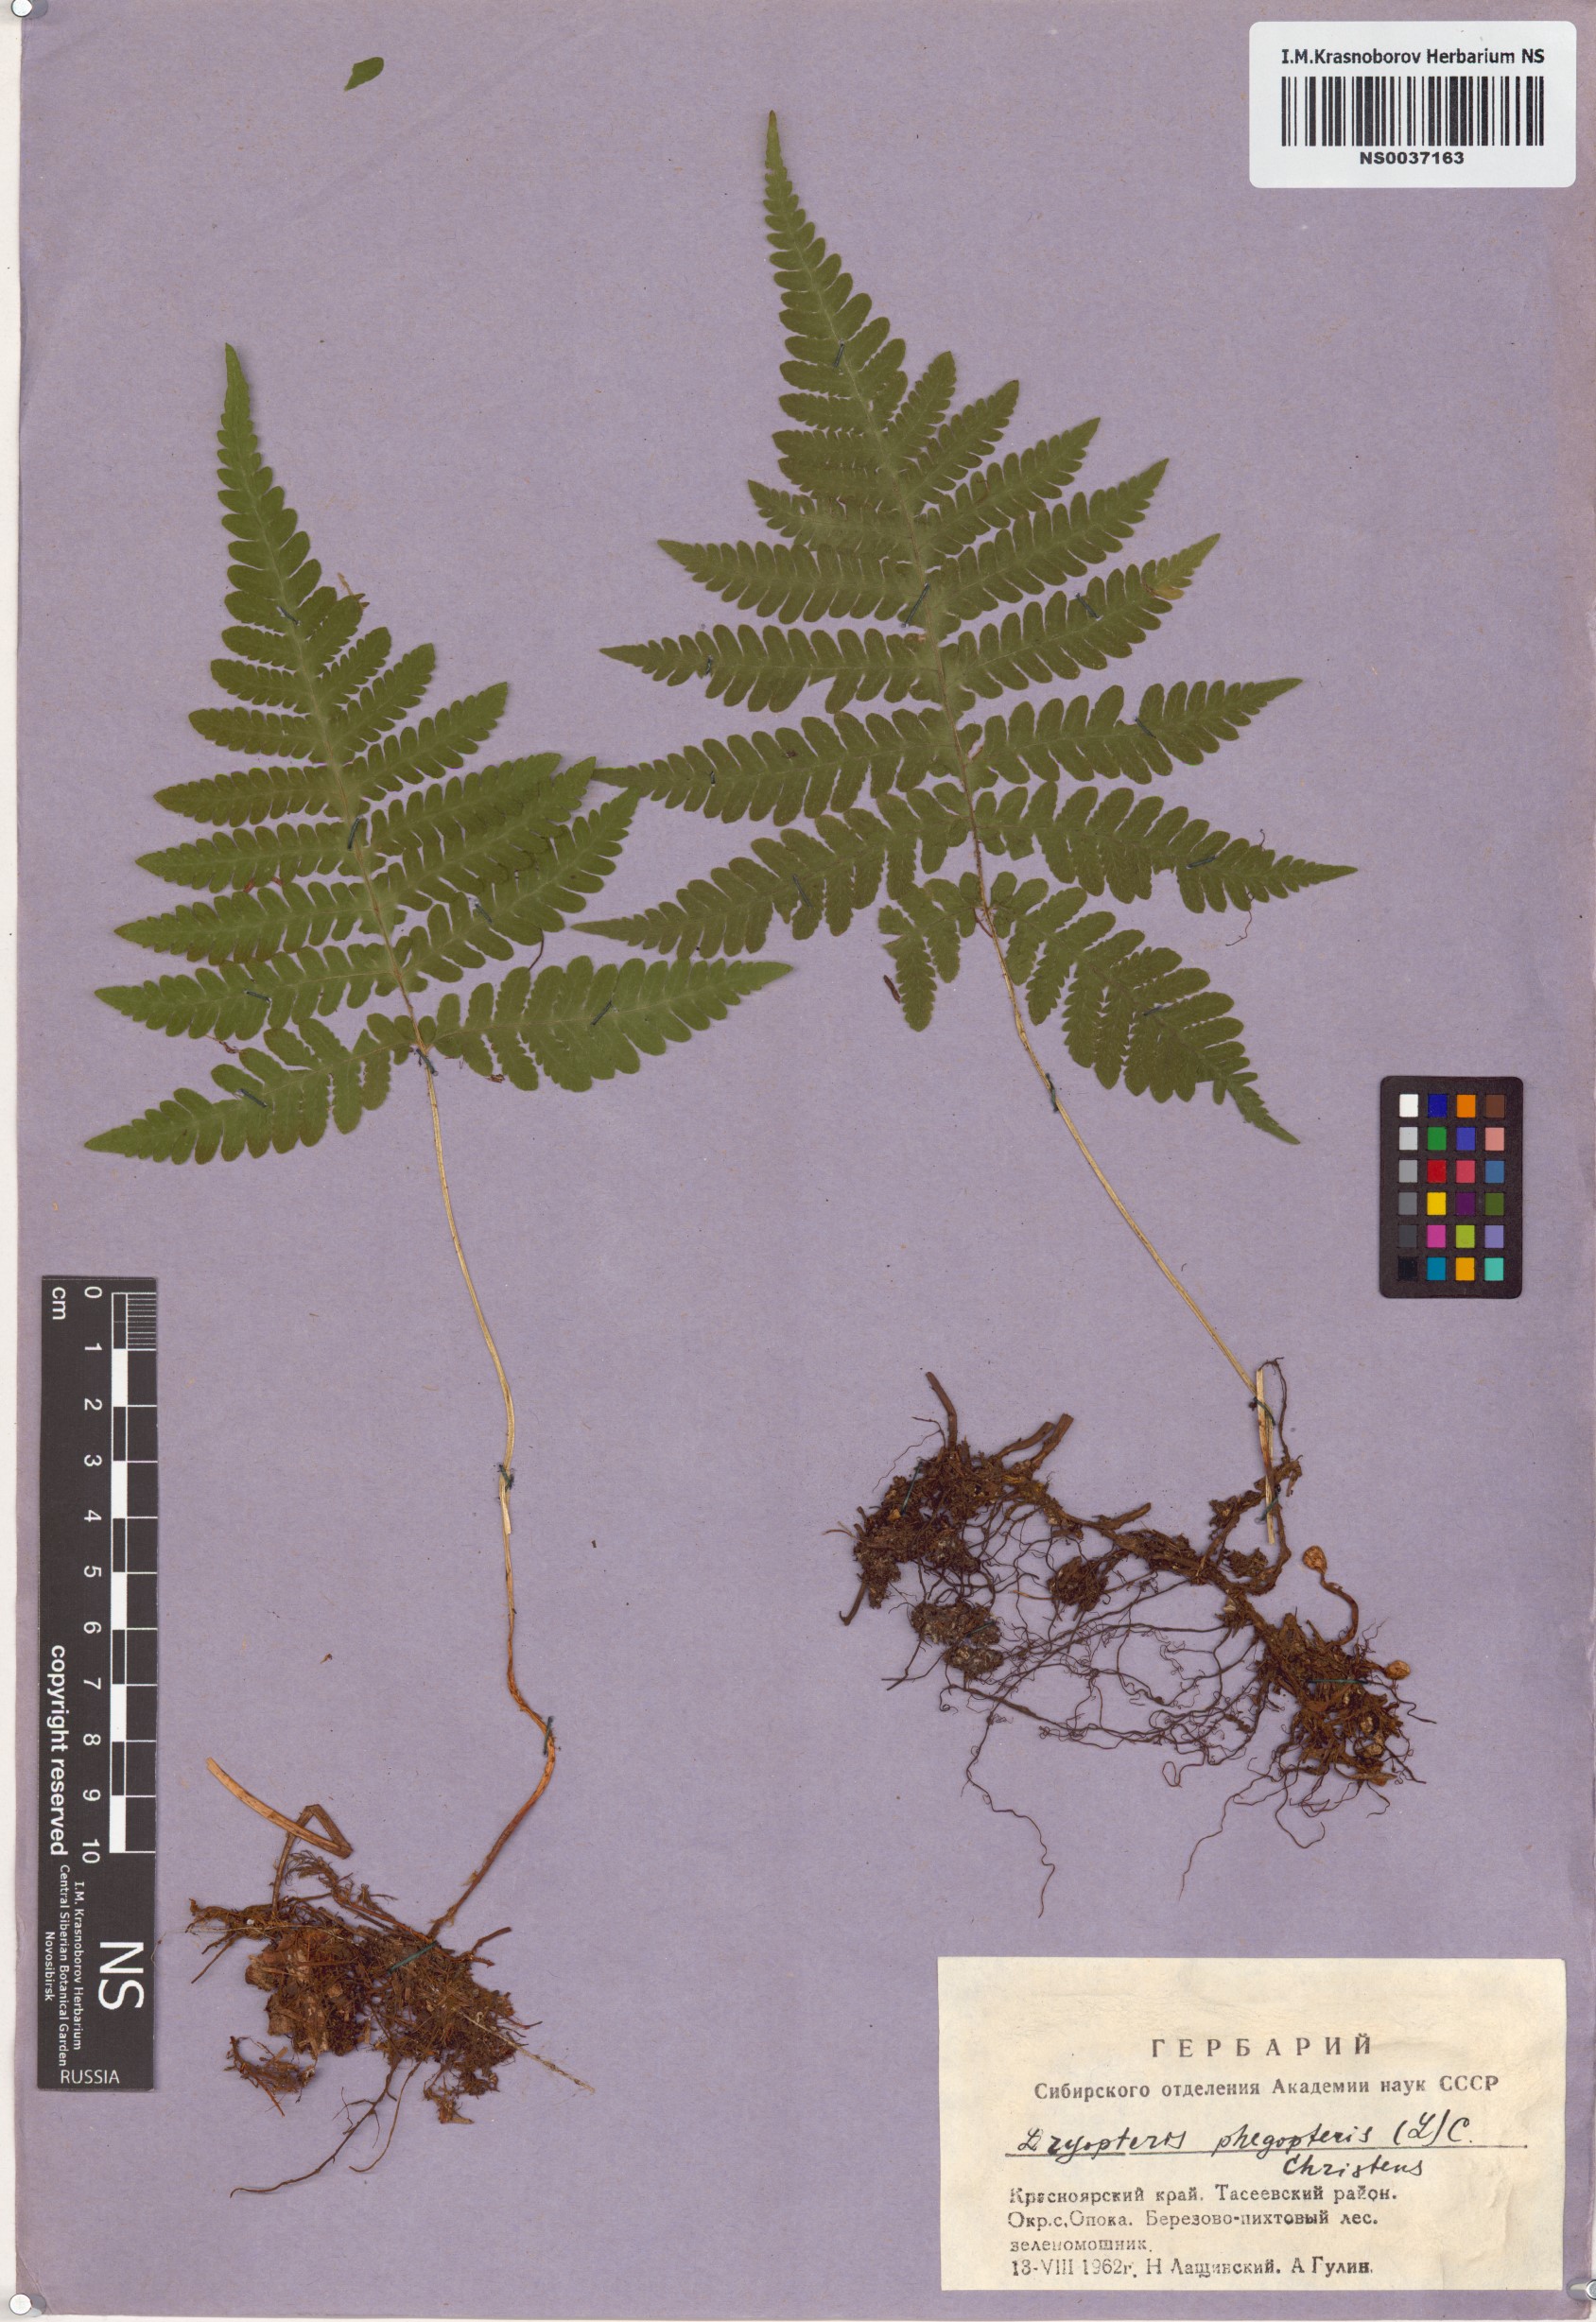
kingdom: Plantae
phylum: Tracheophyta
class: Polypodiopsida
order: Polypodiales
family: Thelypteridaceae
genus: Phegopteris
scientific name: Phegopteris connectilis
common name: Beech fern
